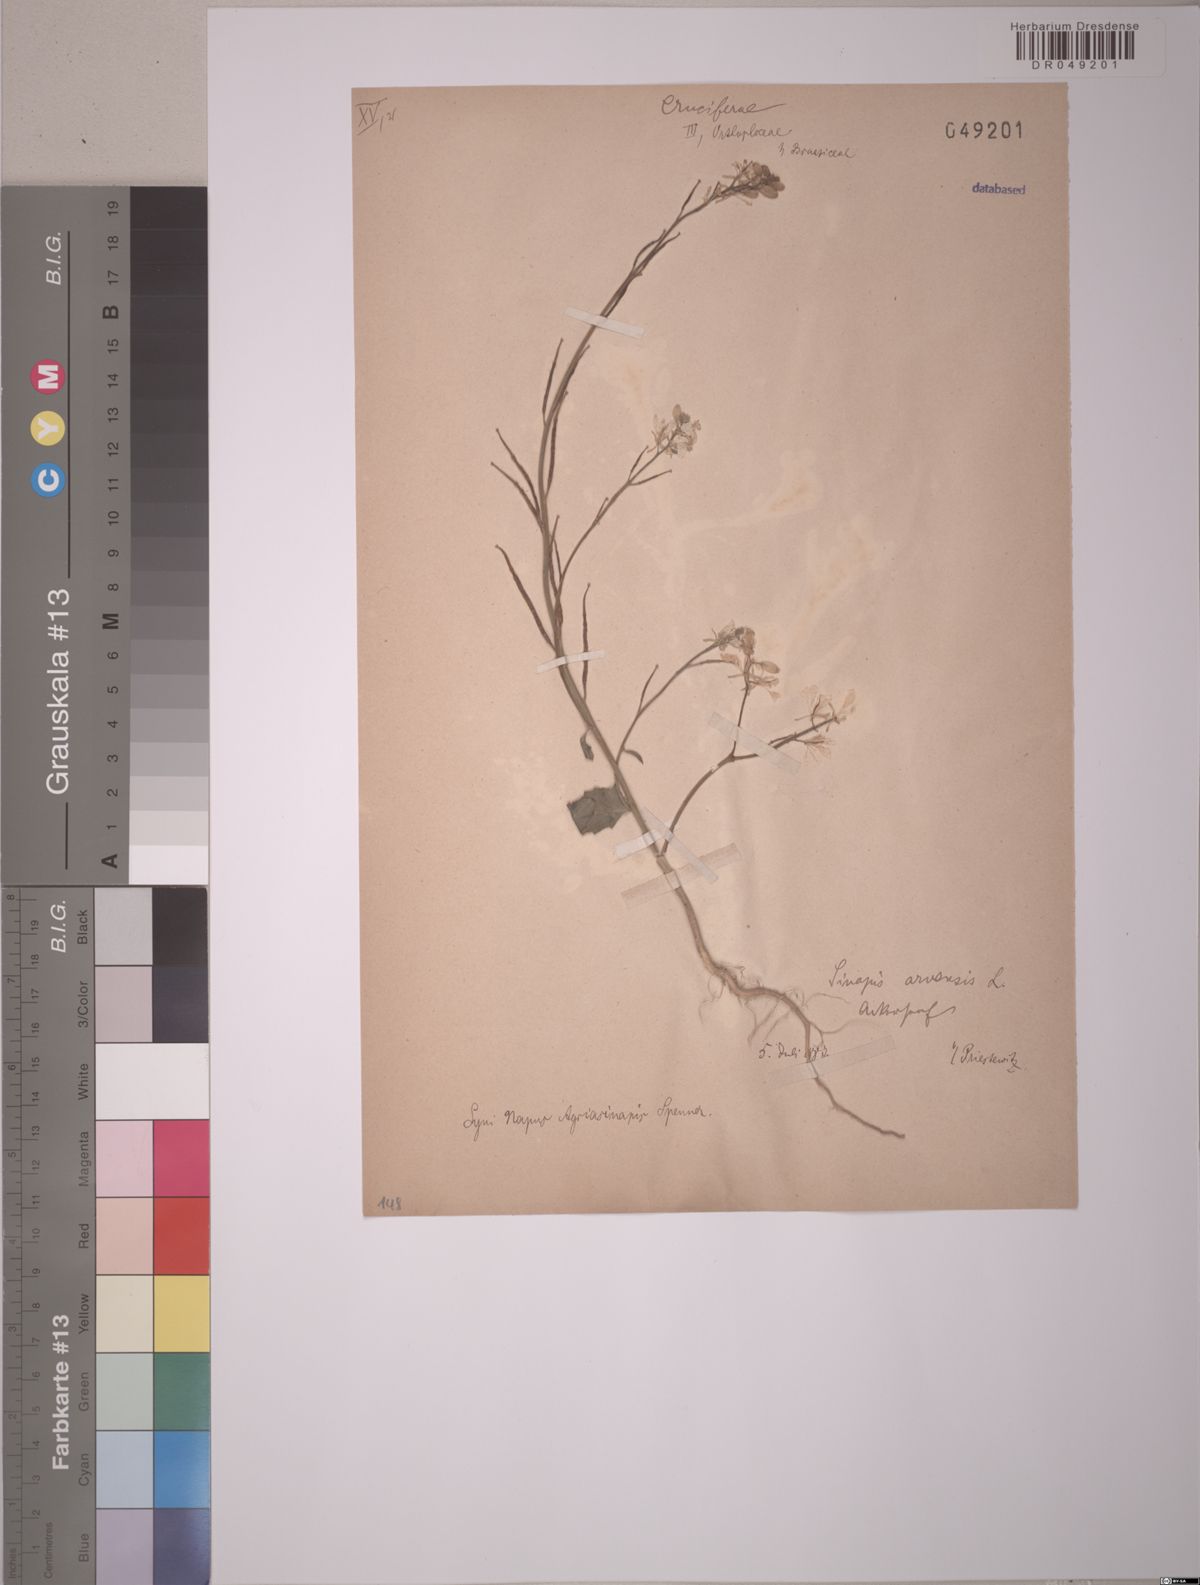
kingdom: Plantae
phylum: Tracheophyta
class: Magnoliopsida
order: Brassicales
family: Brassicaceae
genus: Sinapis
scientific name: Sinapis arvensis
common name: Charlock
